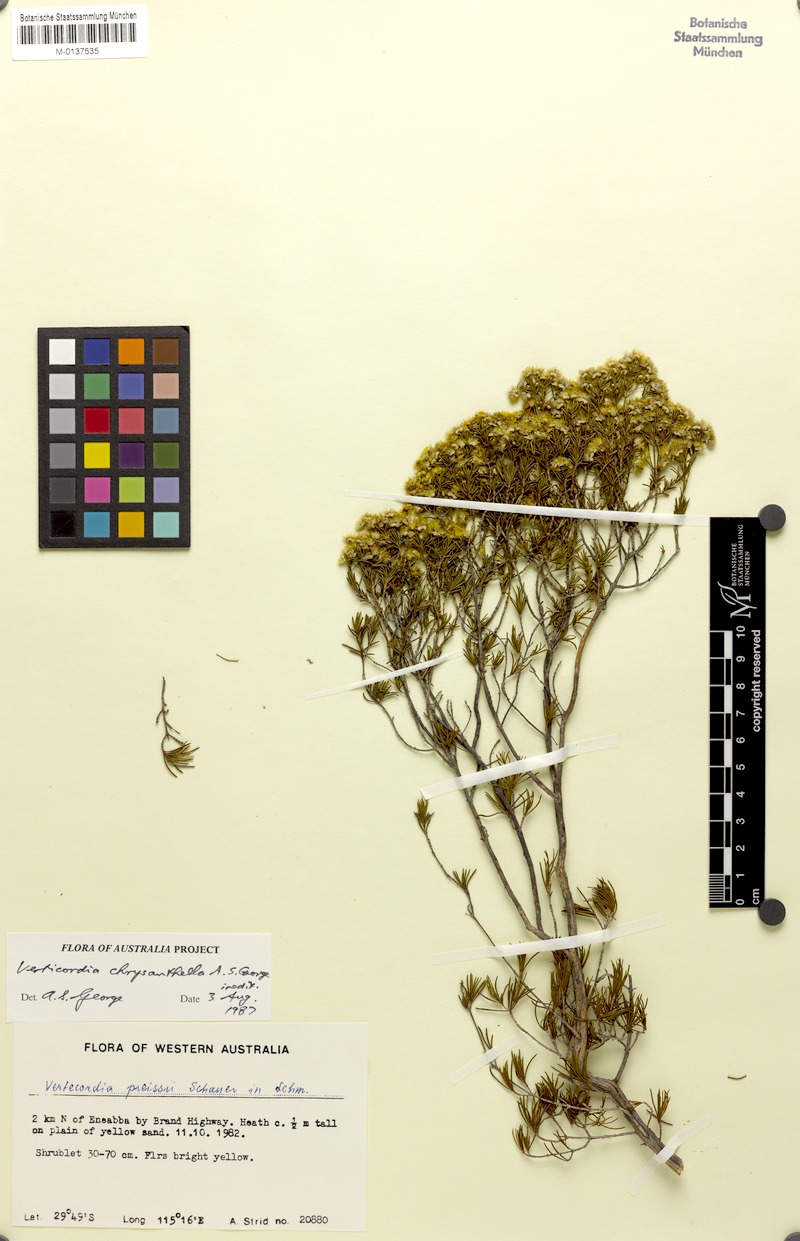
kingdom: Plantae
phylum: Tracheophyta
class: Magnoliopsida
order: Myrtales
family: Myrtaceae
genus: Verticordia
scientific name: Verticordia chrysanthella
